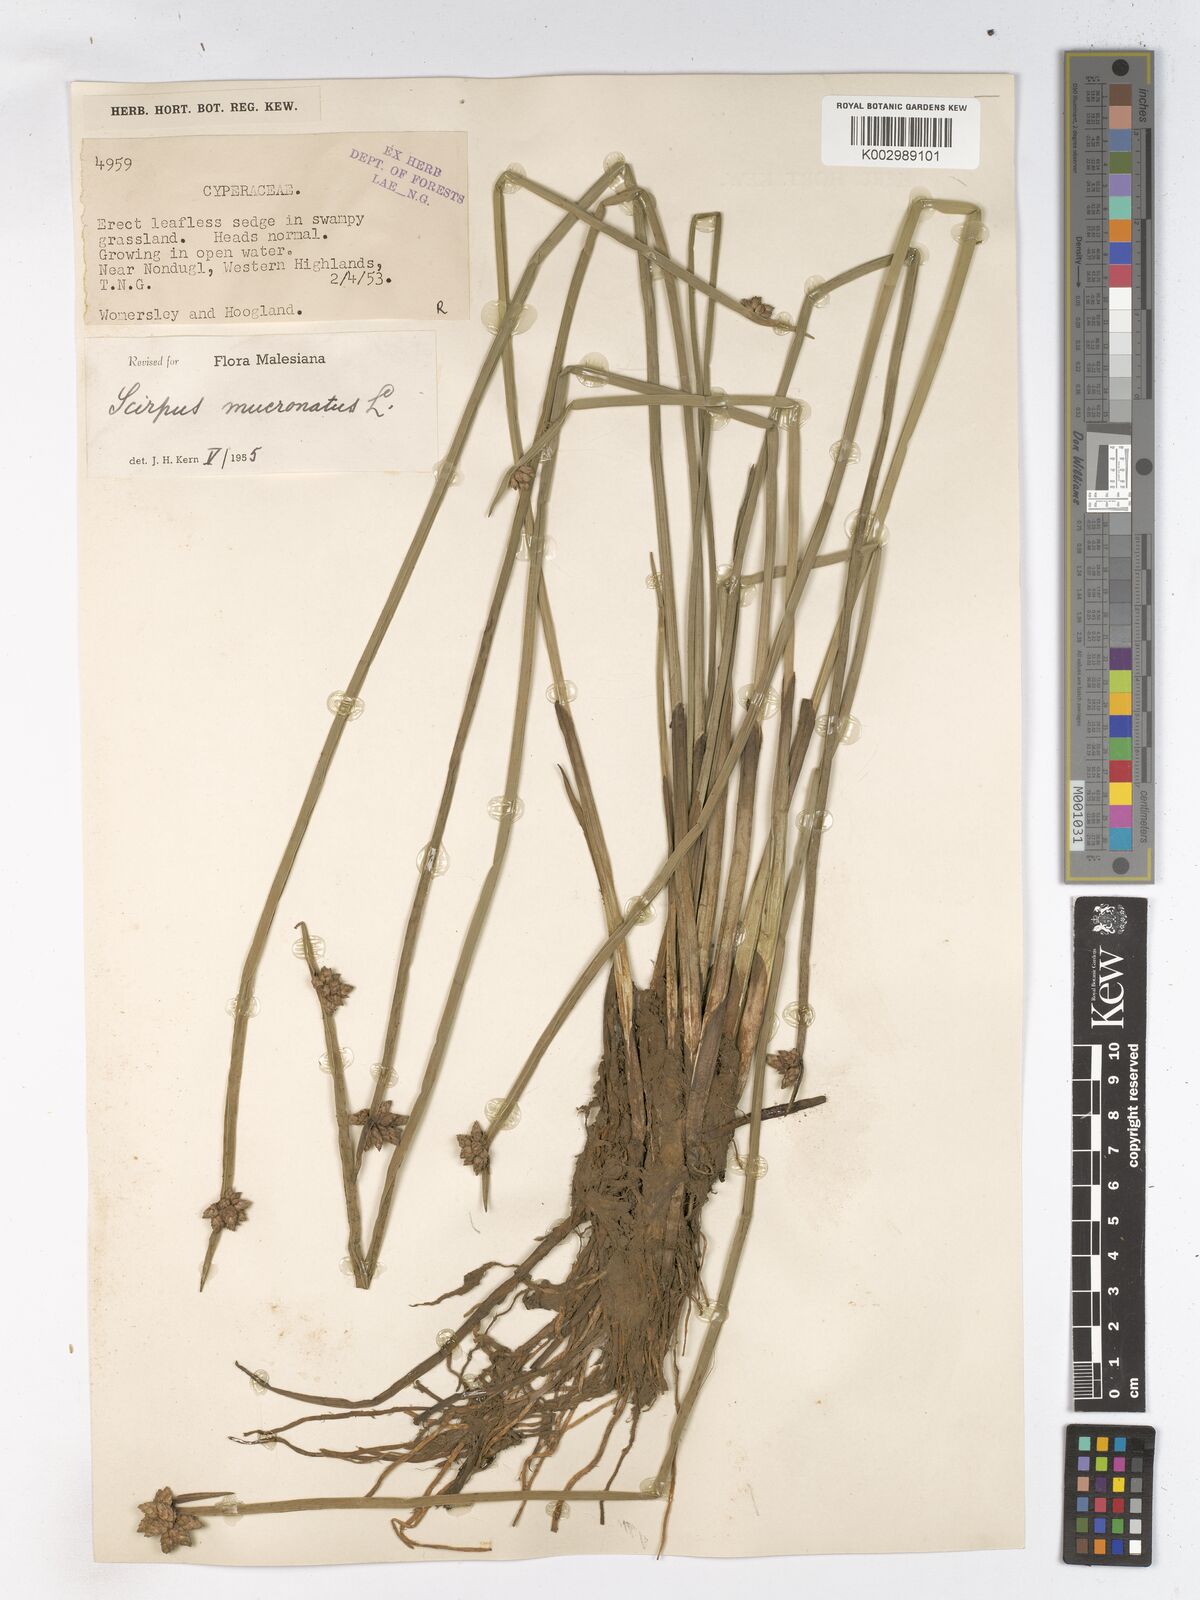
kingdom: Plantae
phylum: Tracheophyta
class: Liliopsida
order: Poales
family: Cyperaceae
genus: Schoenoplectiella
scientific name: Schoenoplectiella mucronata
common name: Bog bulrush
